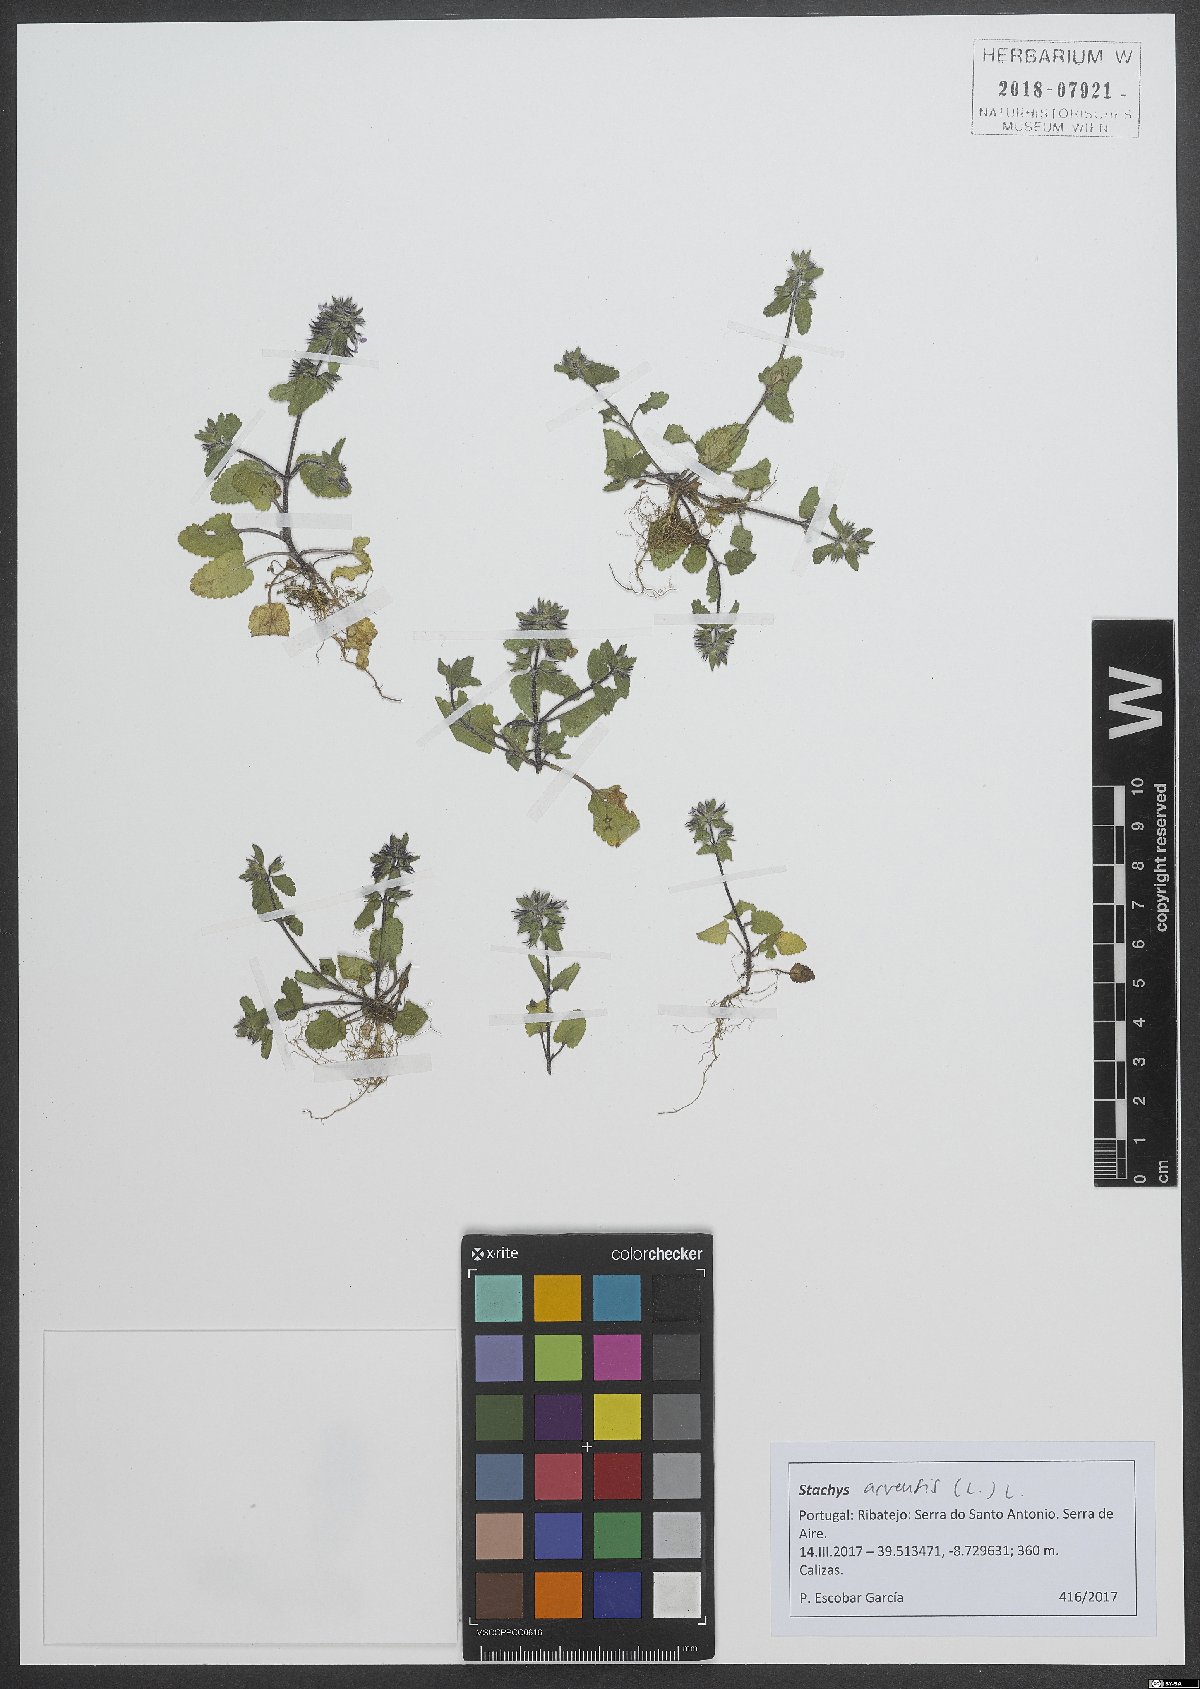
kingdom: Plantae
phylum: Tracheophyta
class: Magnoliopsida
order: Lamiales
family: Lamiaceae
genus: Stachys
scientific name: Stachys arvensis
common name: Field woundwort
